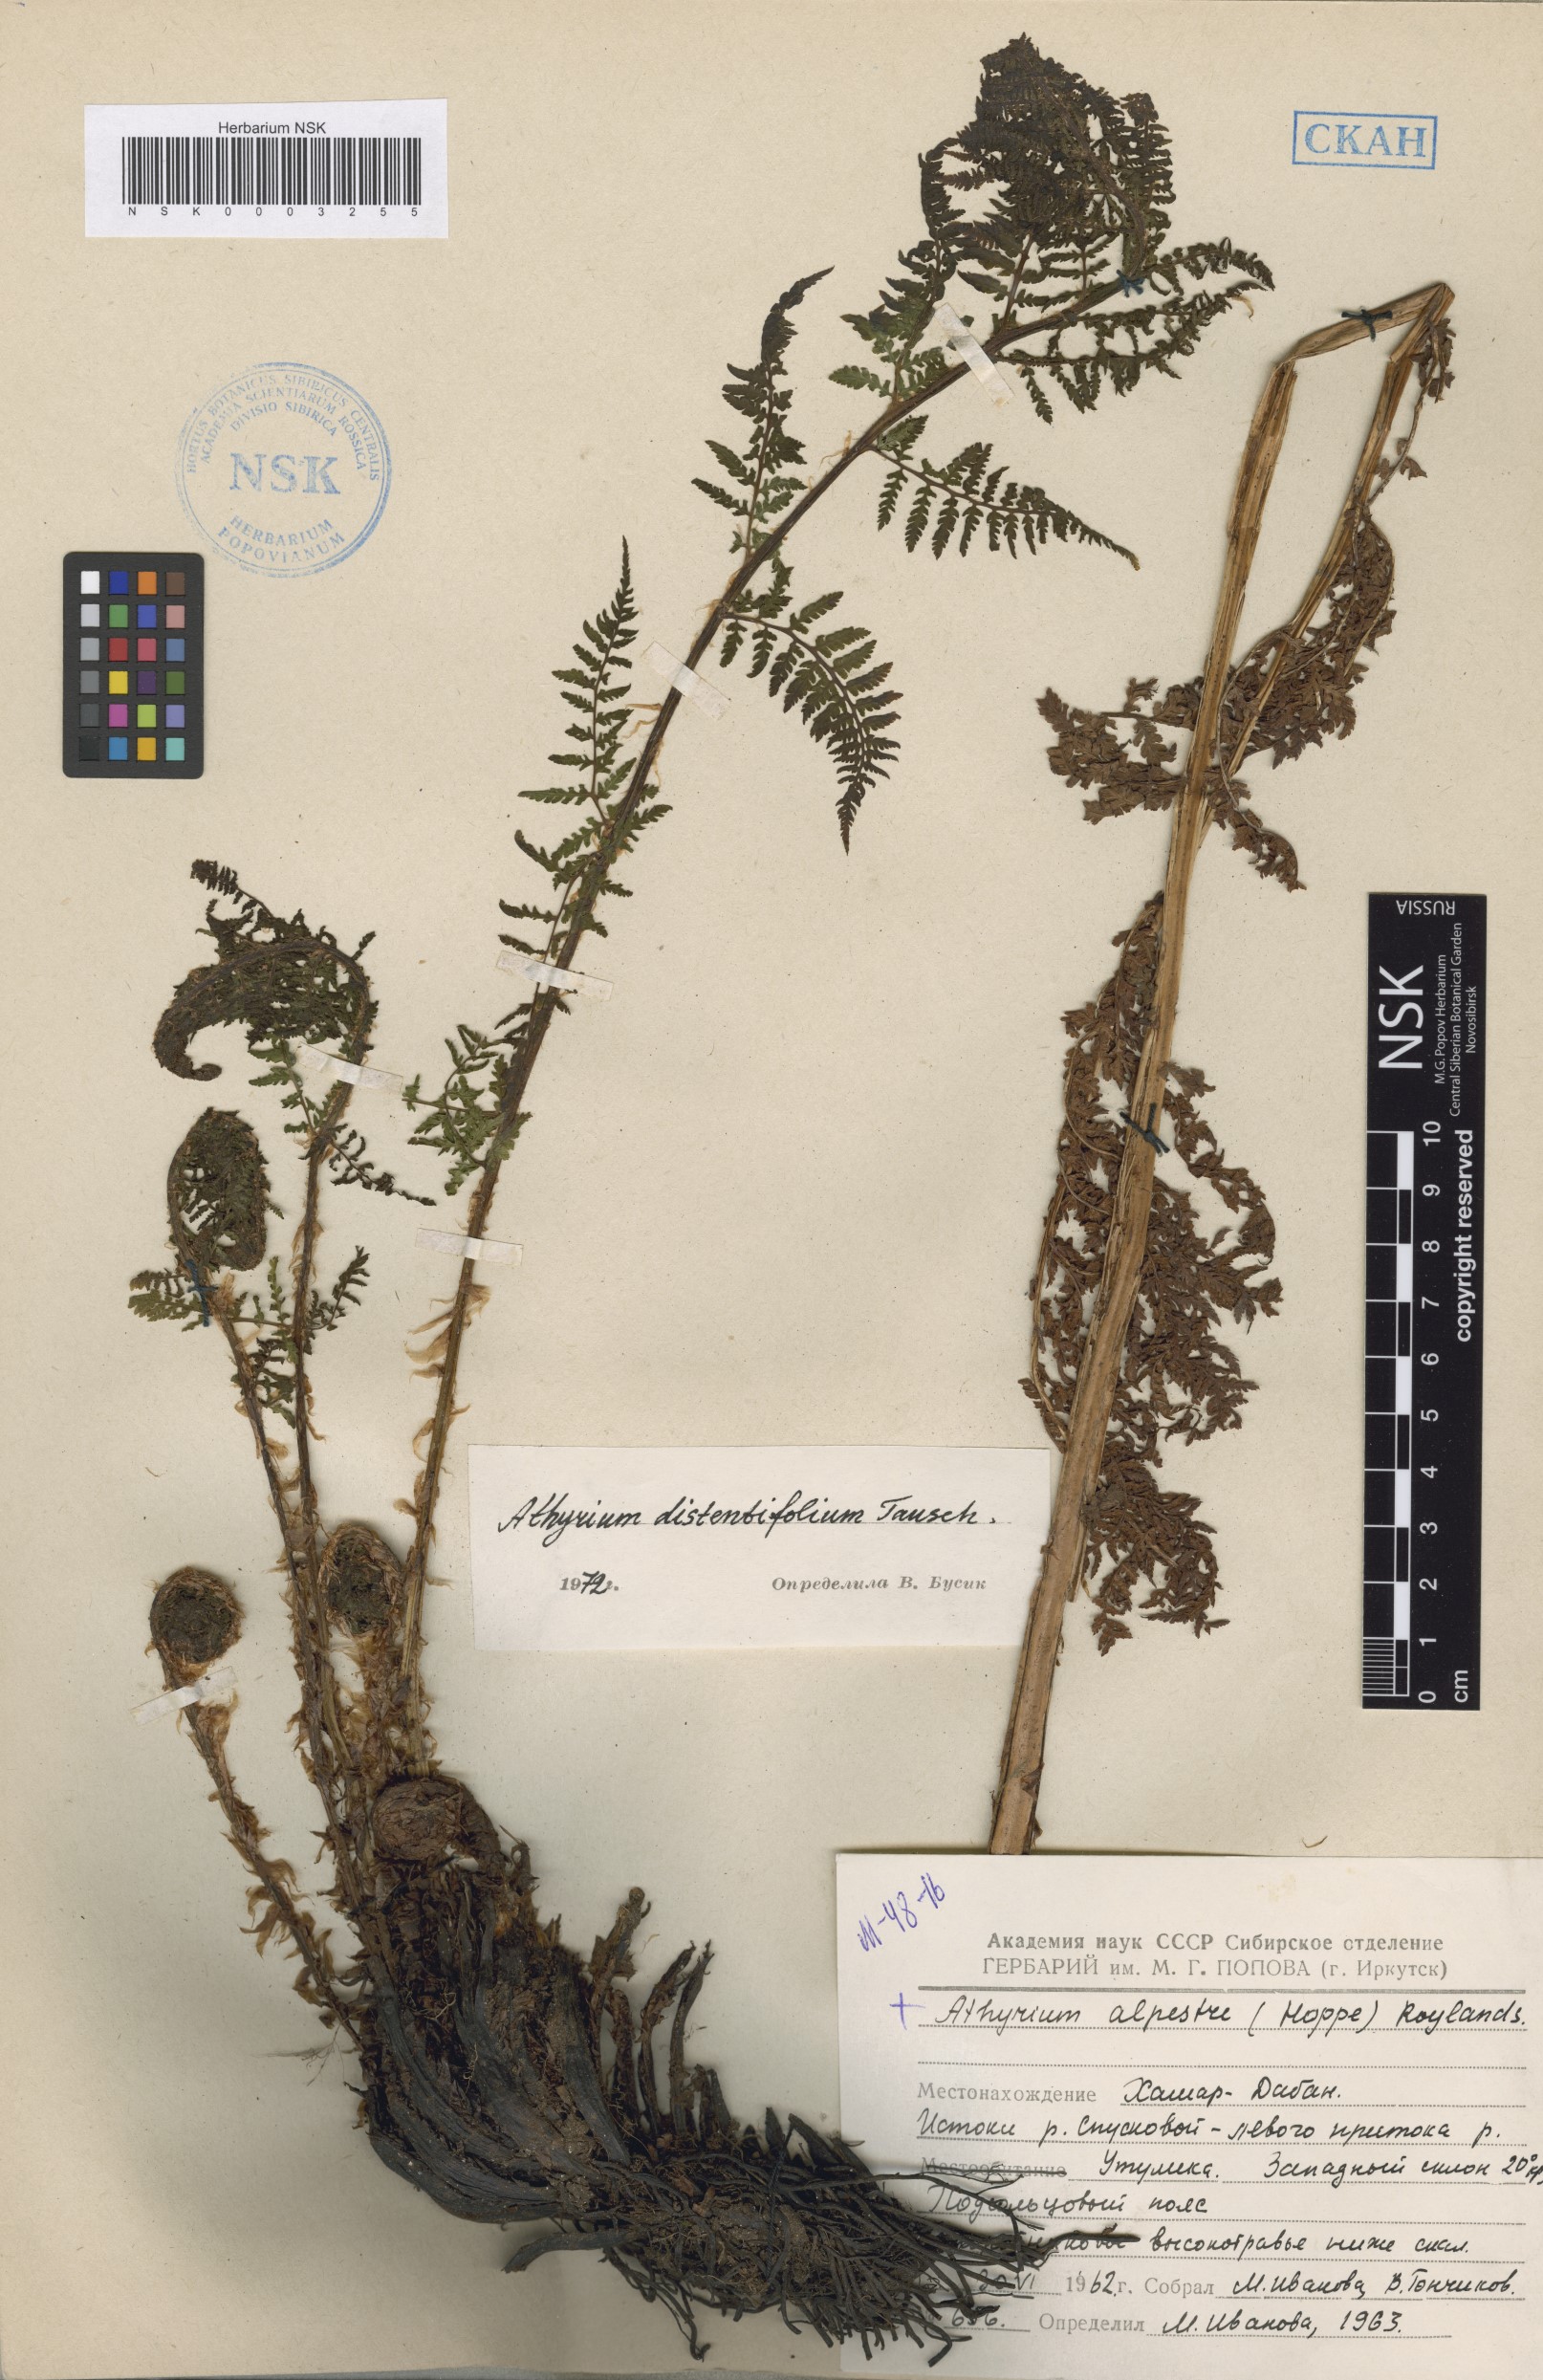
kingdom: Plantae
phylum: Tracheophyta
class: Polypodiopsida
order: Polypodiales
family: Athyriaceae
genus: Pseudathyrium
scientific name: Pseudathyrium alpestre
